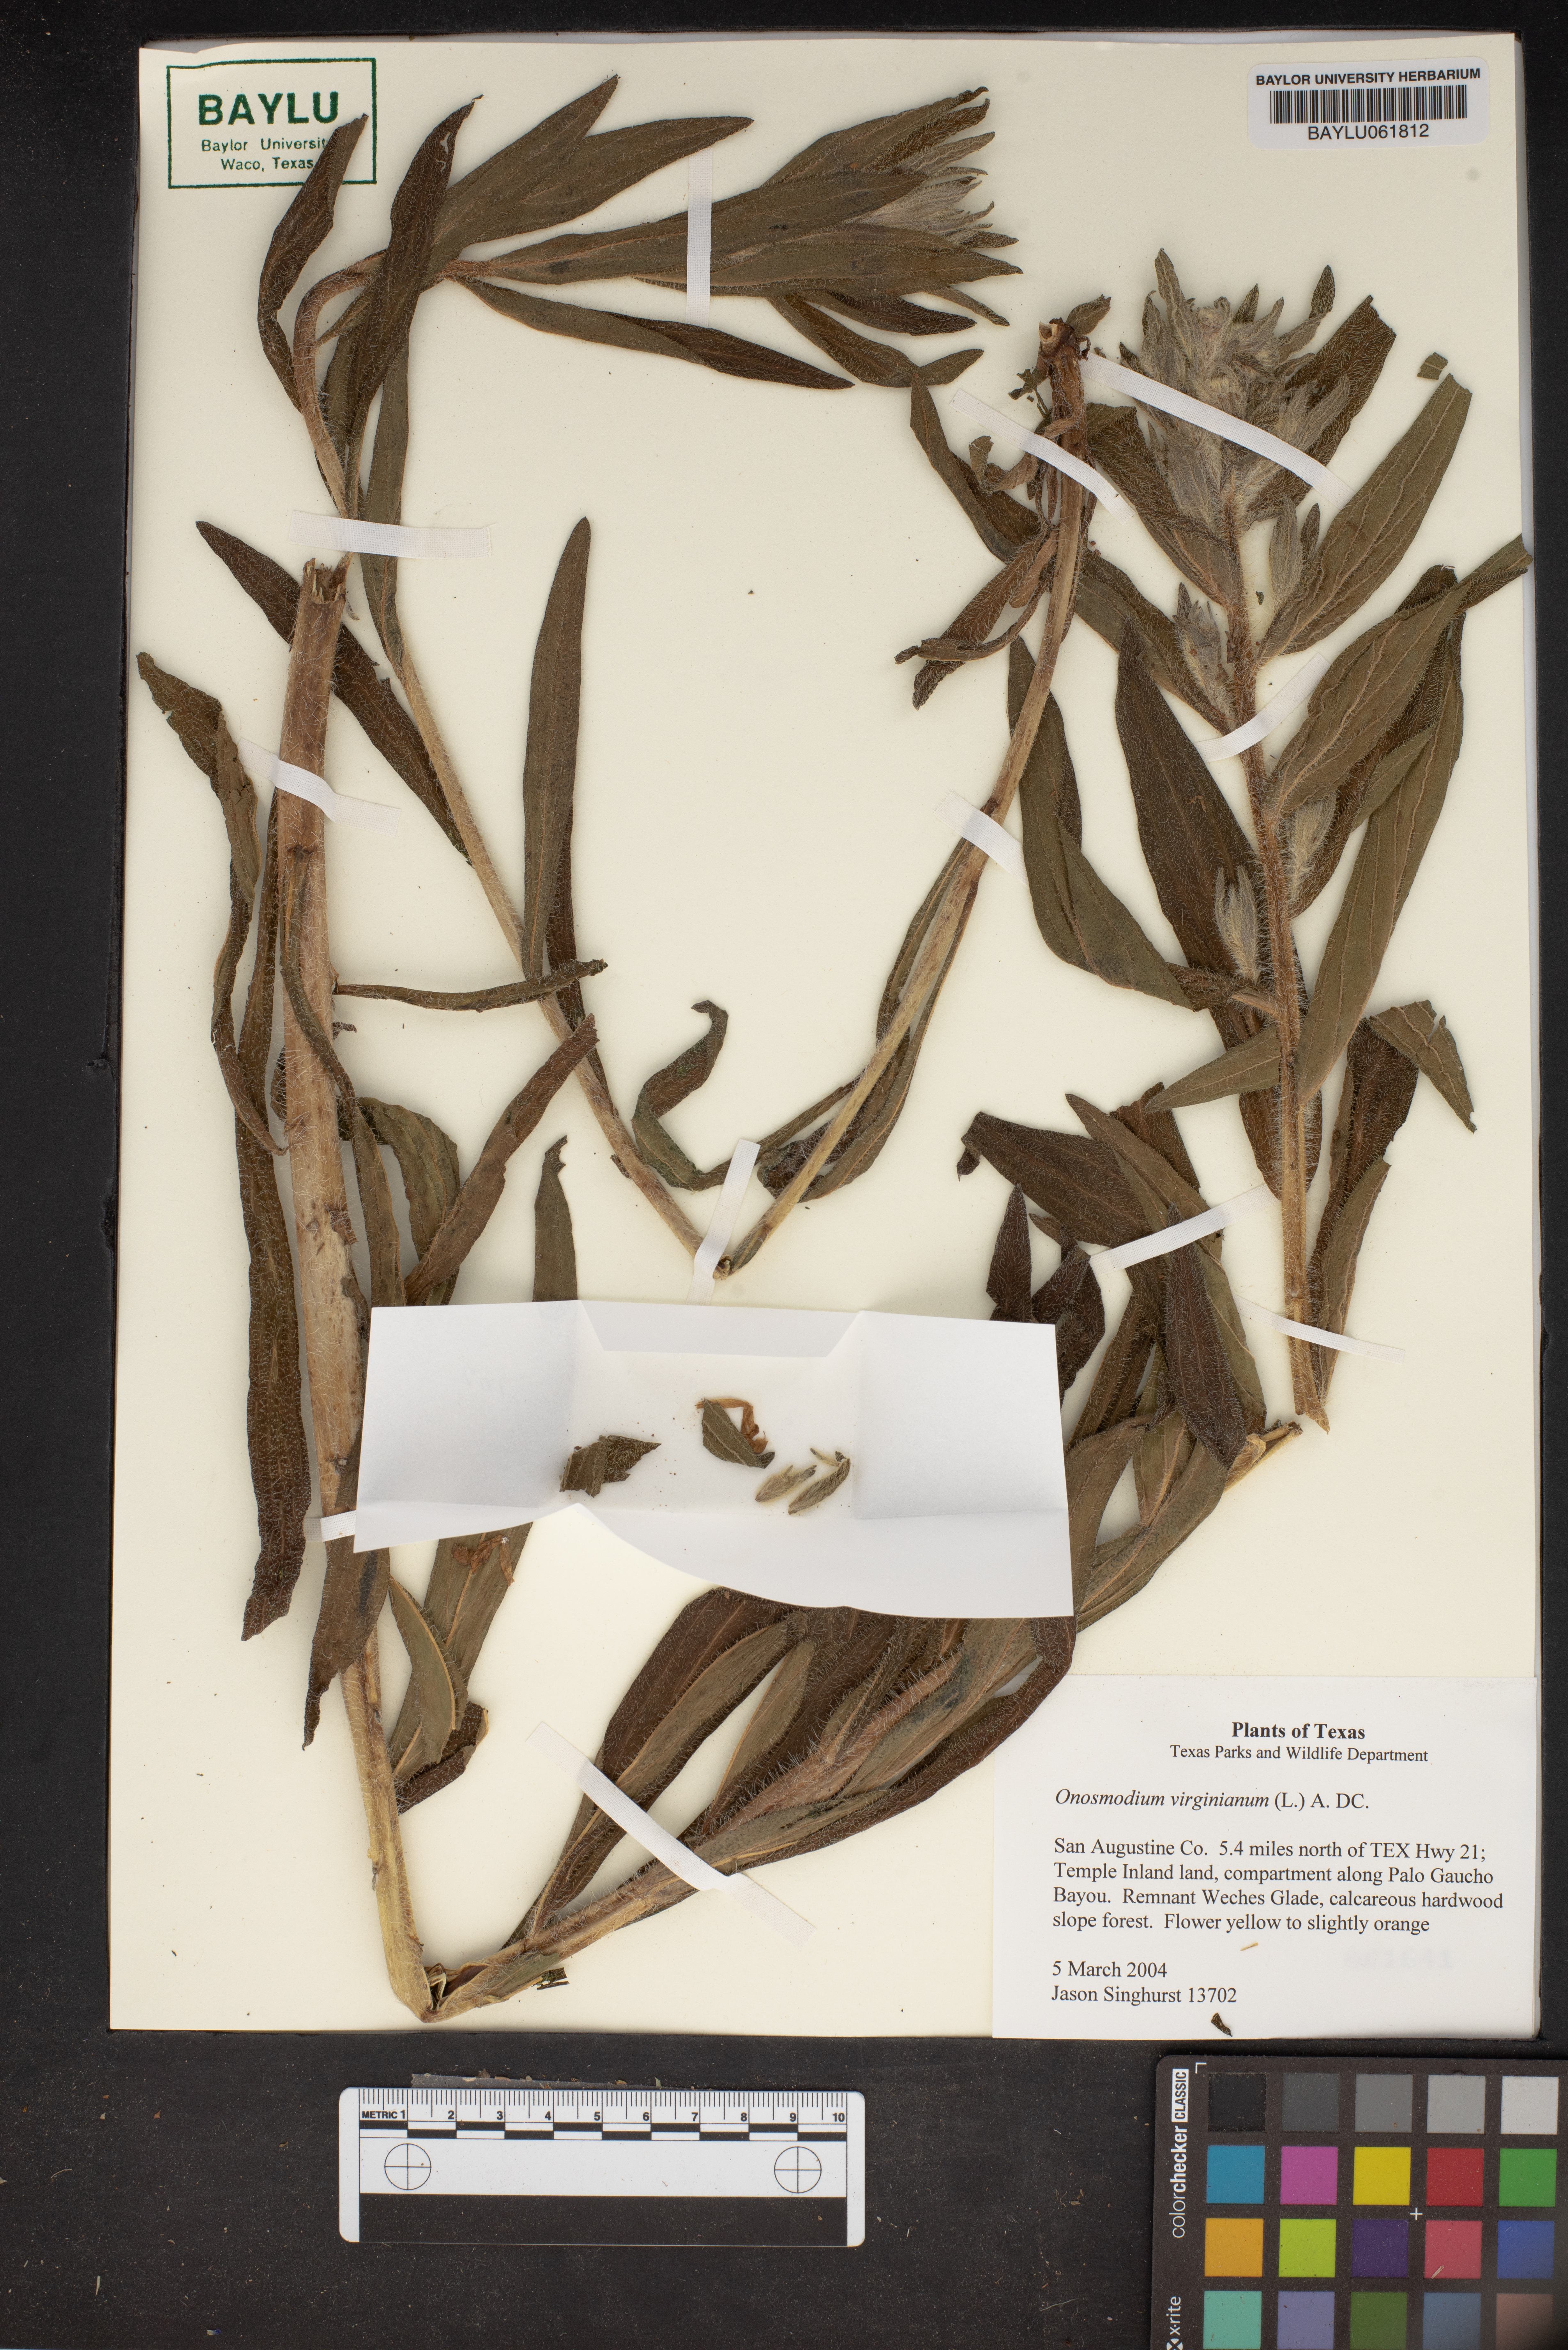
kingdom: Plantae
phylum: Tracheophyta
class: Magnoliopsida
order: Boraginales
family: Boraginaceae
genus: Lithospermum
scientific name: Lithospermum virginianum
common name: Eastern false gromwell
